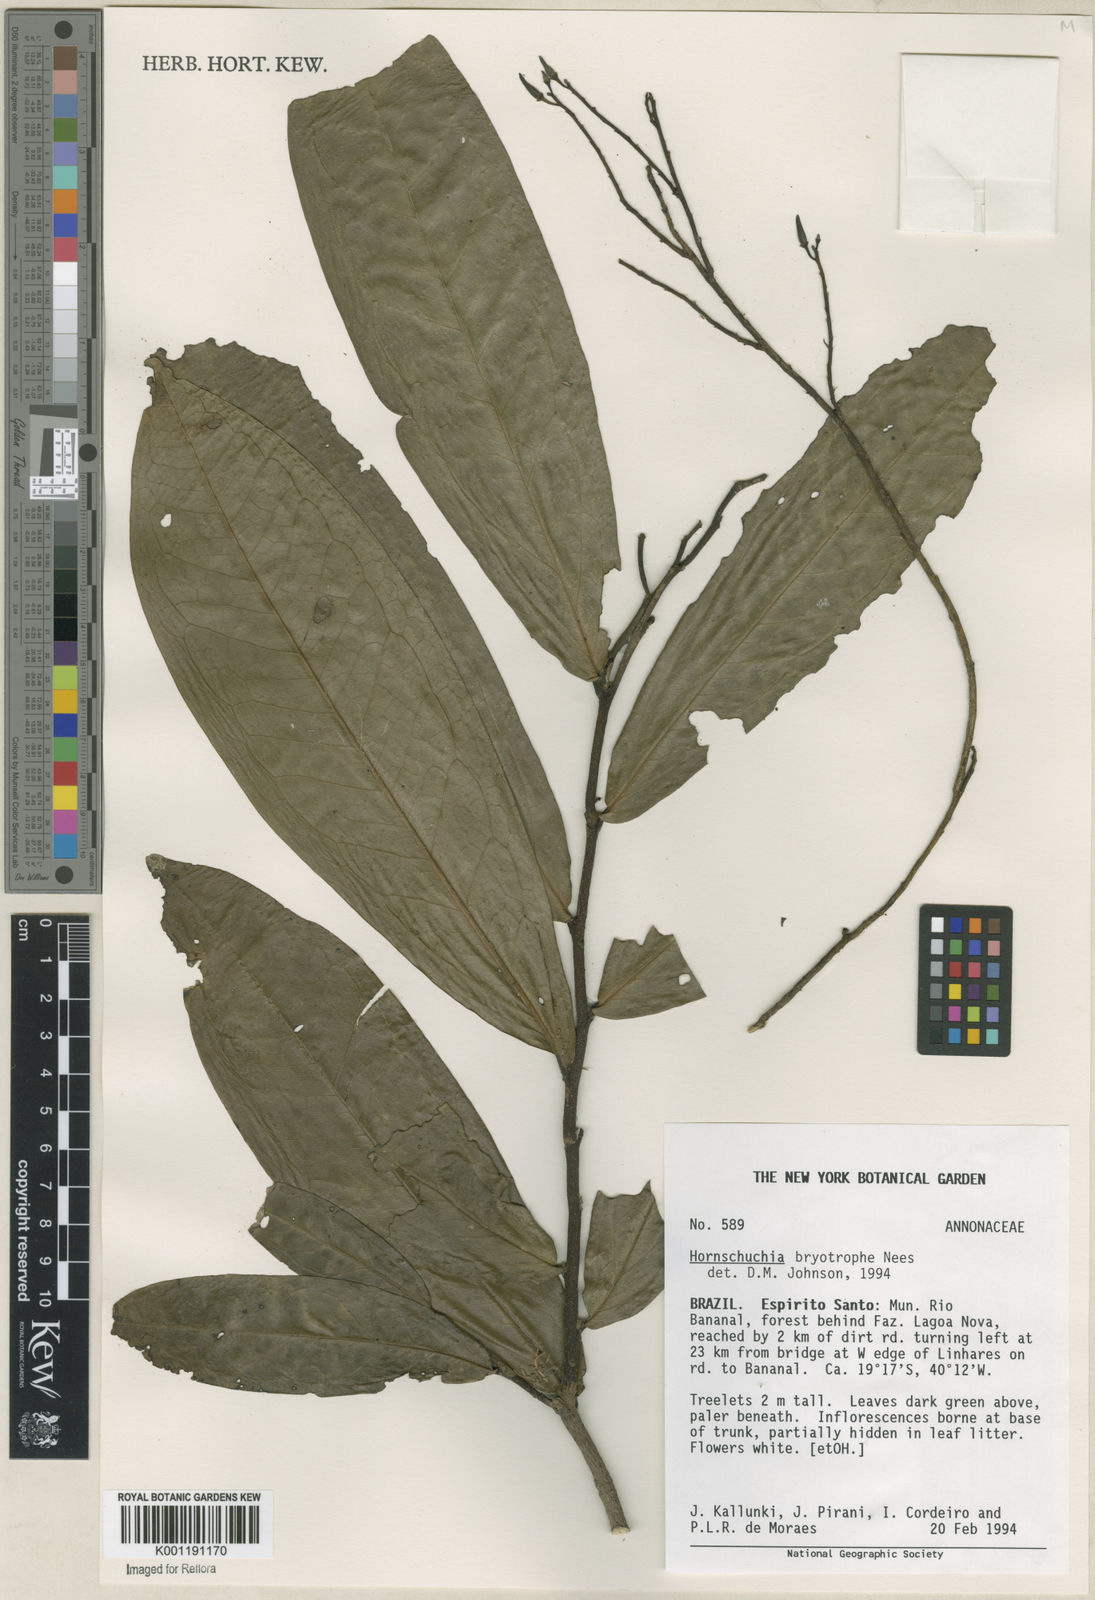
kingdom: Plantae
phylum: Tracheophyta
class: Magnoliopsida
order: Magnoliales
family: Annonaceae
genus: Hornschuchia
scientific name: Hornschuchia bryotrophe
